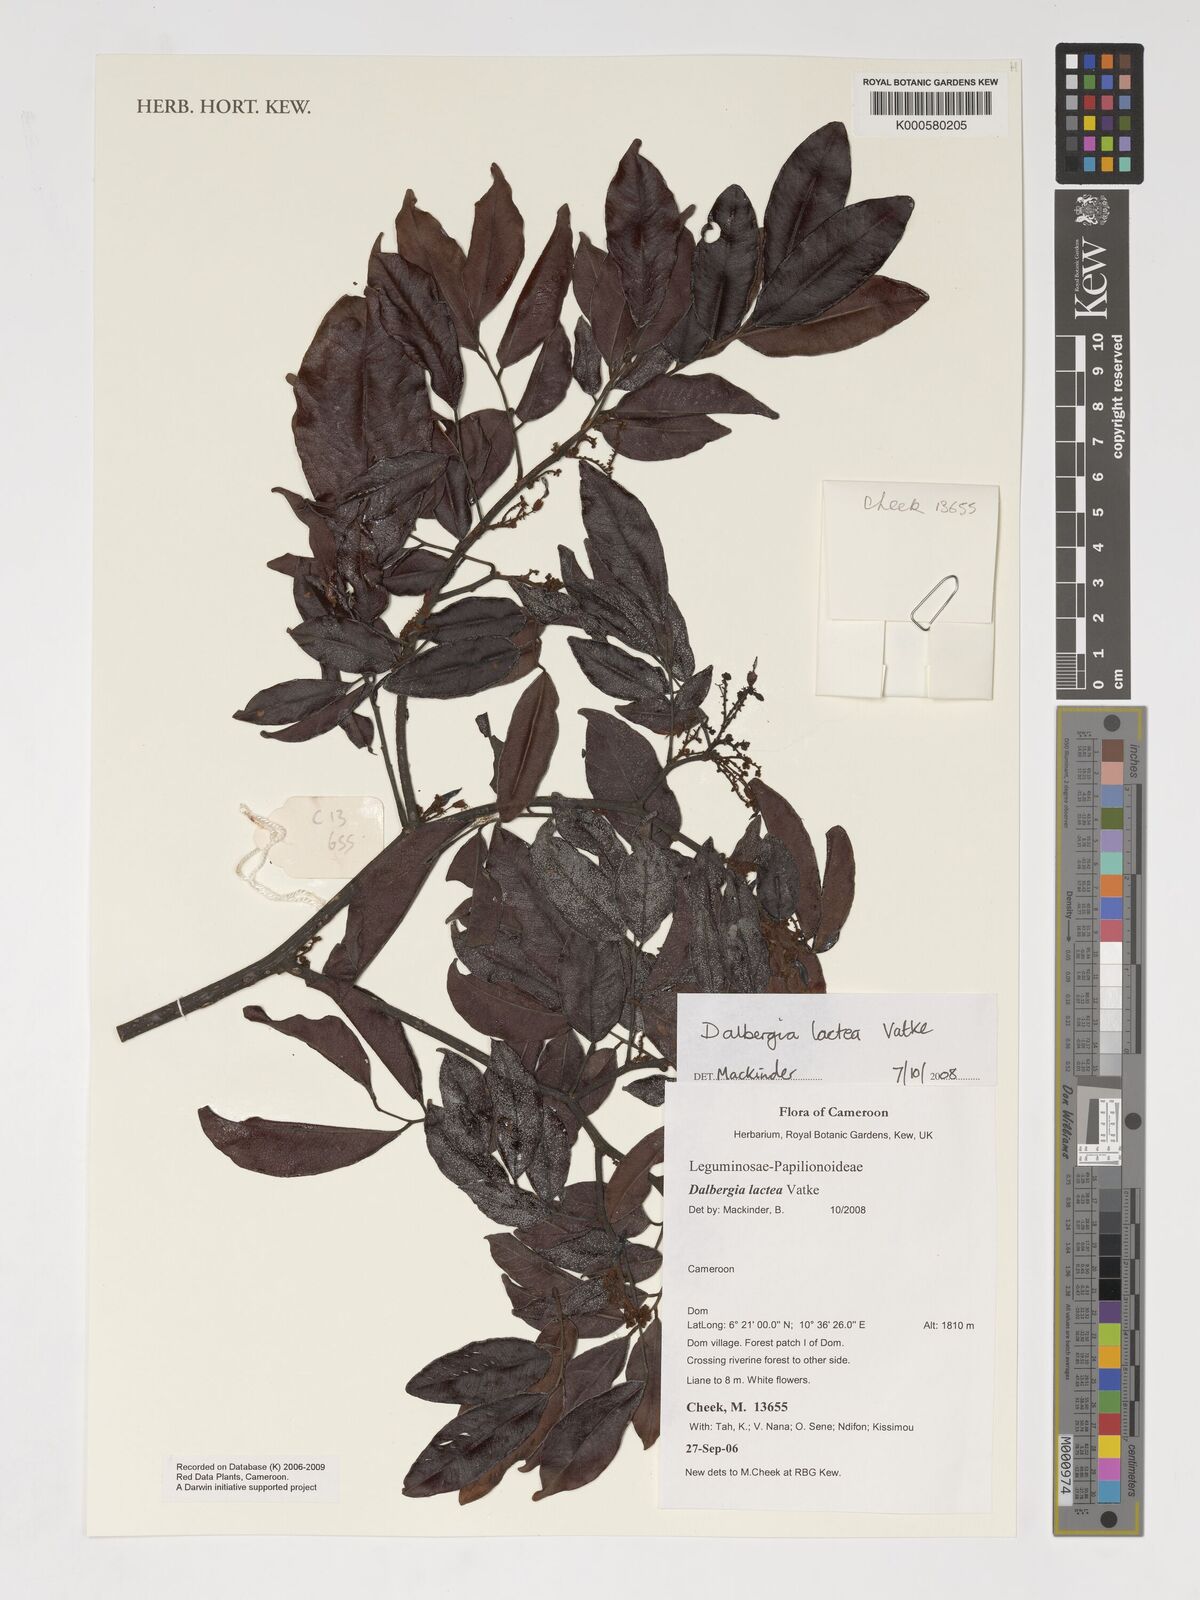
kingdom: Plantae
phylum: Tracheophyta
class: Magnoliopsida
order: Fabales
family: Fabaceae
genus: Dalbergia
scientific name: Dalbergia lactea
